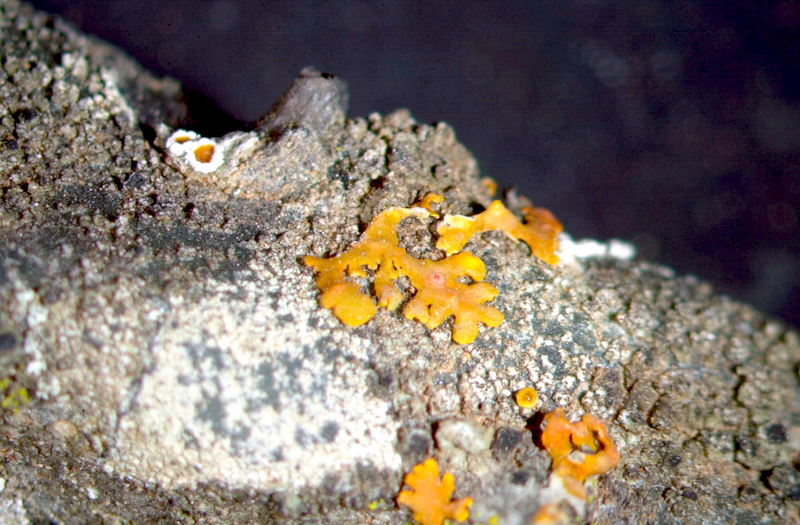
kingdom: Fungi
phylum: Ascomycota
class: Lecanoromycetes
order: Caliciales
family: Physciaceae
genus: Rinodina
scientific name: Rinodina australiensis
